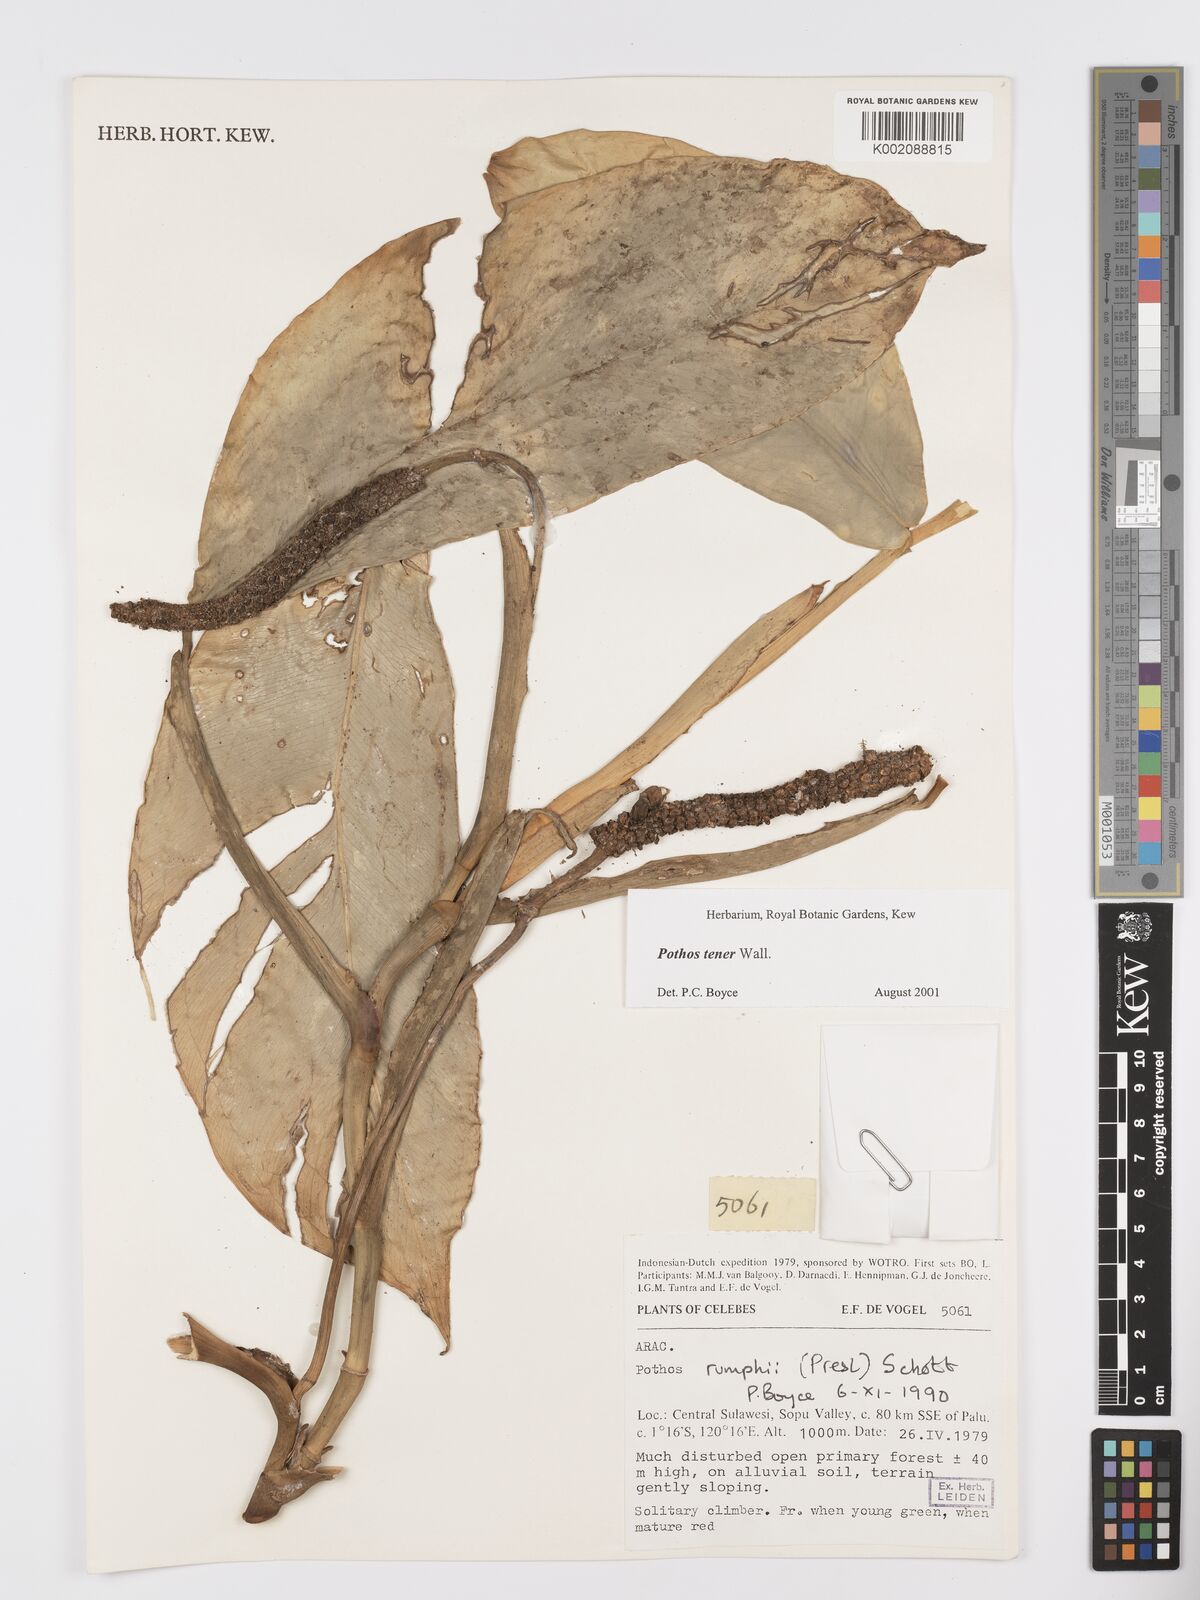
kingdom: Plantae
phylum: Tracheophyta
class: Liliopsida
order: Alismatales
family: Araceae
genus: Pothos
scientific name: Pothos tener
